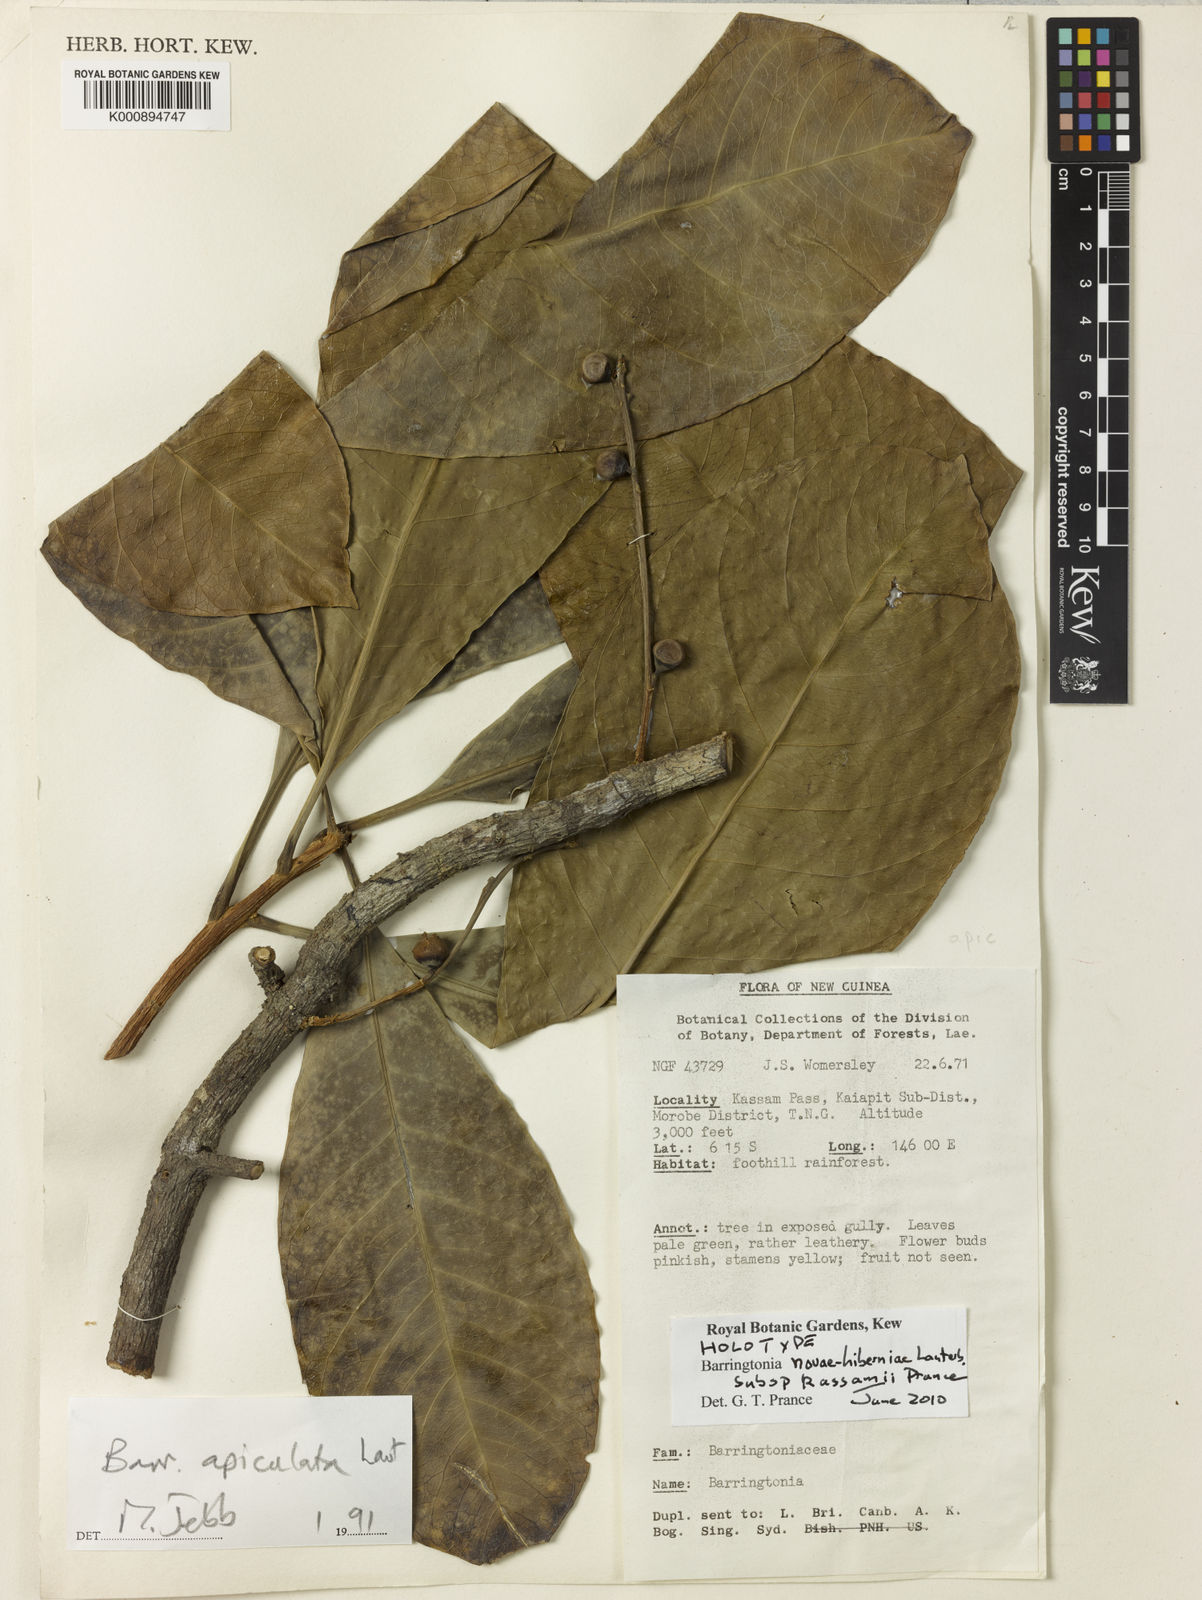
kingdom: Plantae
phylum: Tracheophyta
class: Magnoliopsida
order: Ericales
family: Lecythidaceae
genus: Barringtonia
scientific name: Barringtonia novae-hiberniae
